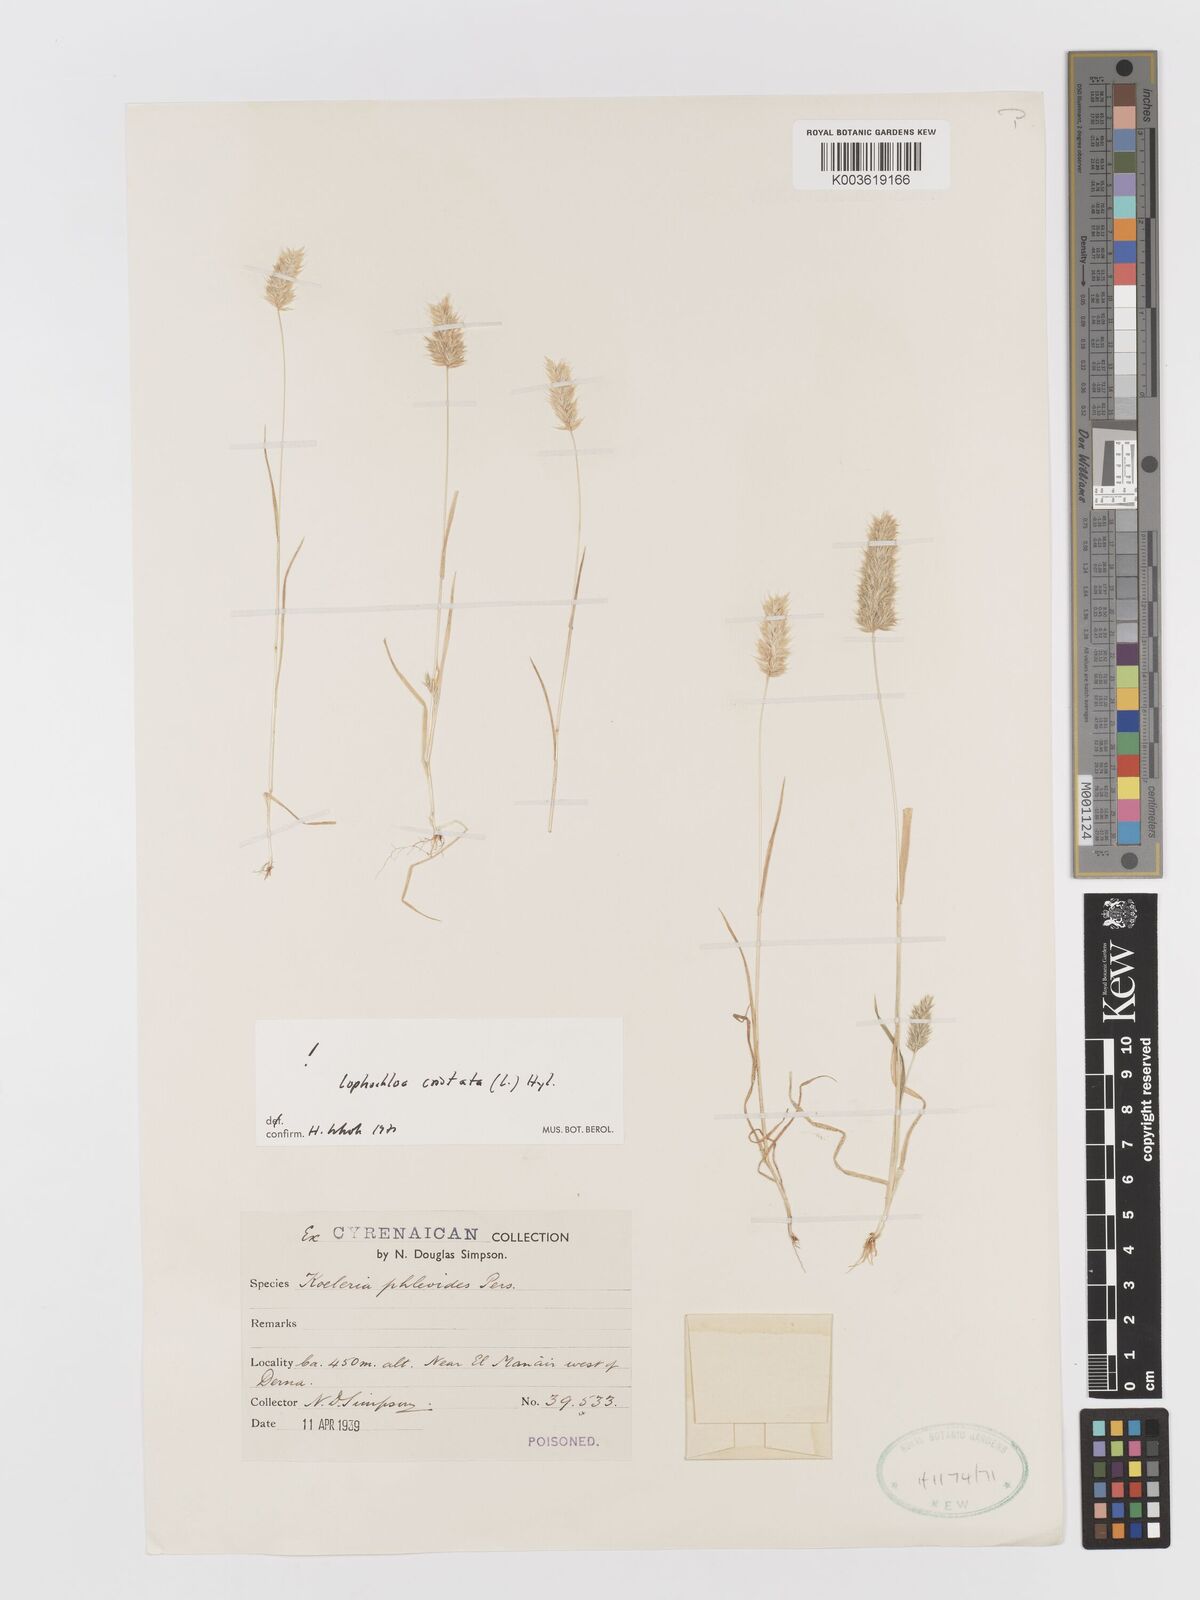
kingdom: Plantae
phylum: Tracheophyta
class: Liliopsida
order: Poales
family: Poaceae
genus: Rostraria
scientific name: Rostraria cristata
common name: Mediterranean hair-grass
